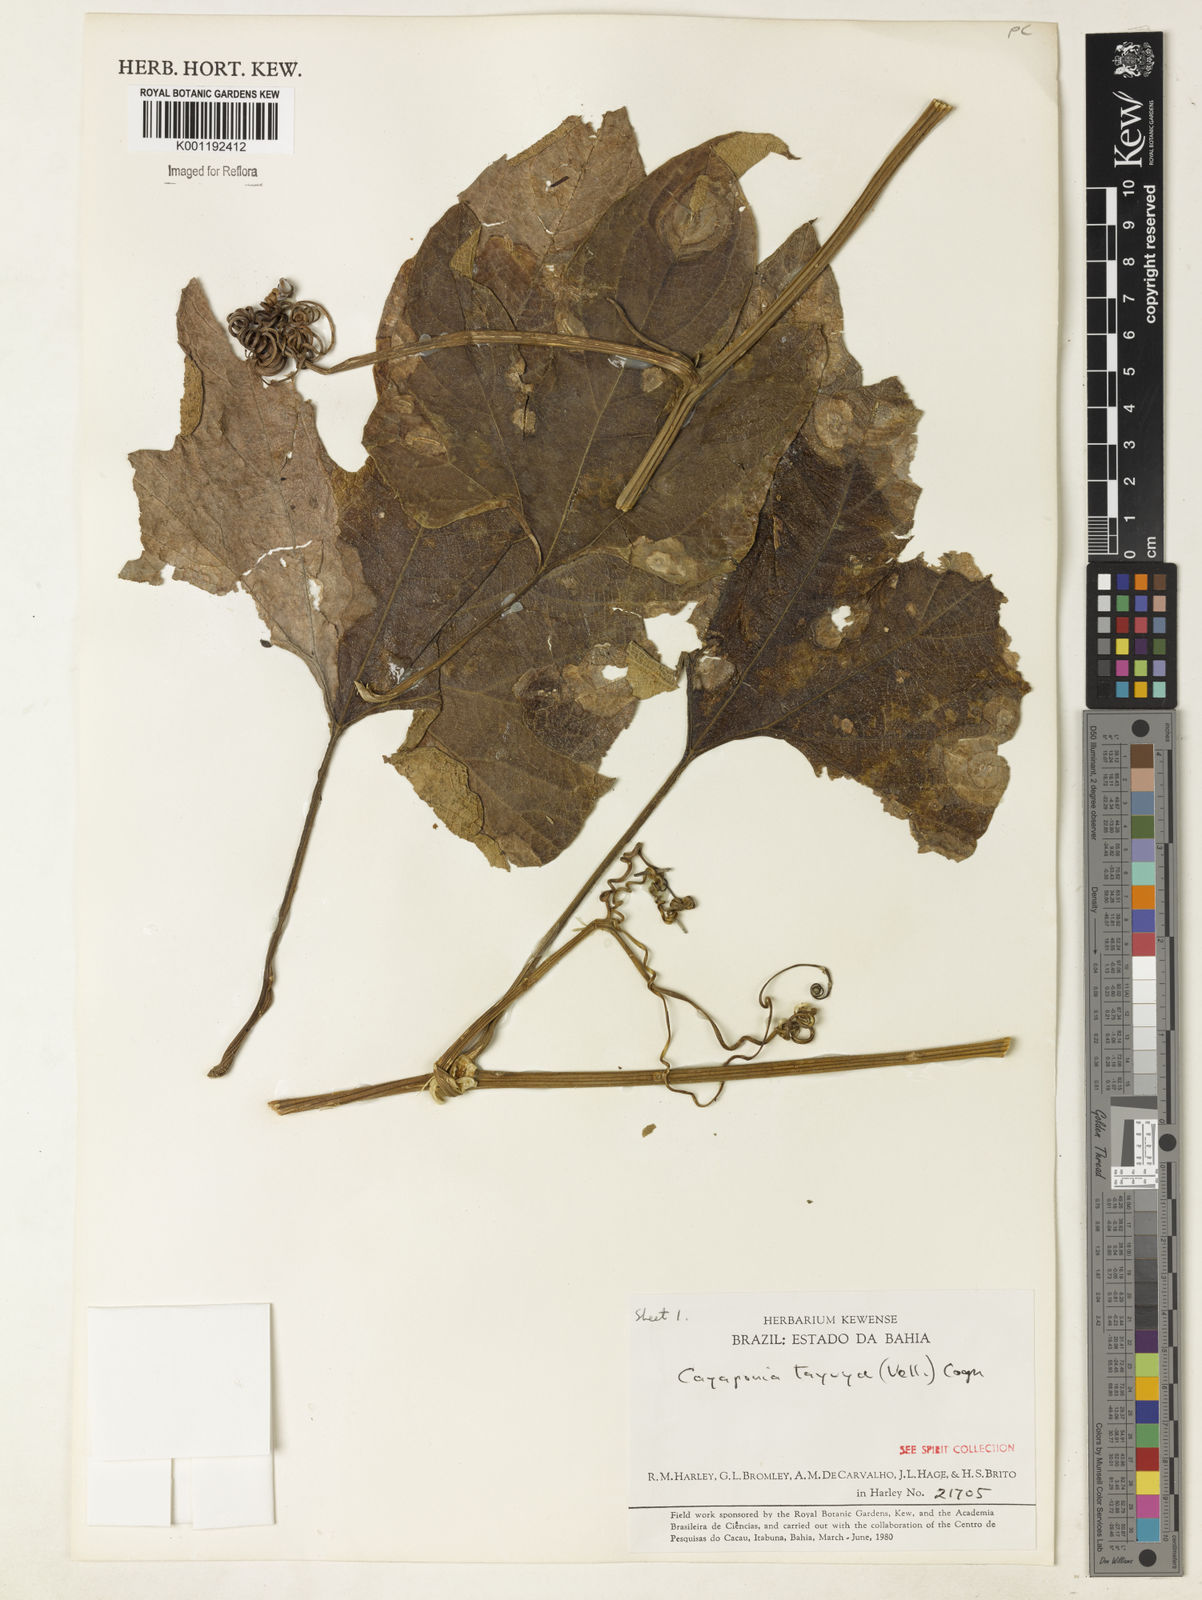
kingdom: Plantae
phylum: Tracheophyta
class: Magnoliopsida
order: Cucurbitales
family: Cucurbitaceae
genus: Cayaponia
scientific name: Cayaponia tayuya
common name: Tayuya
